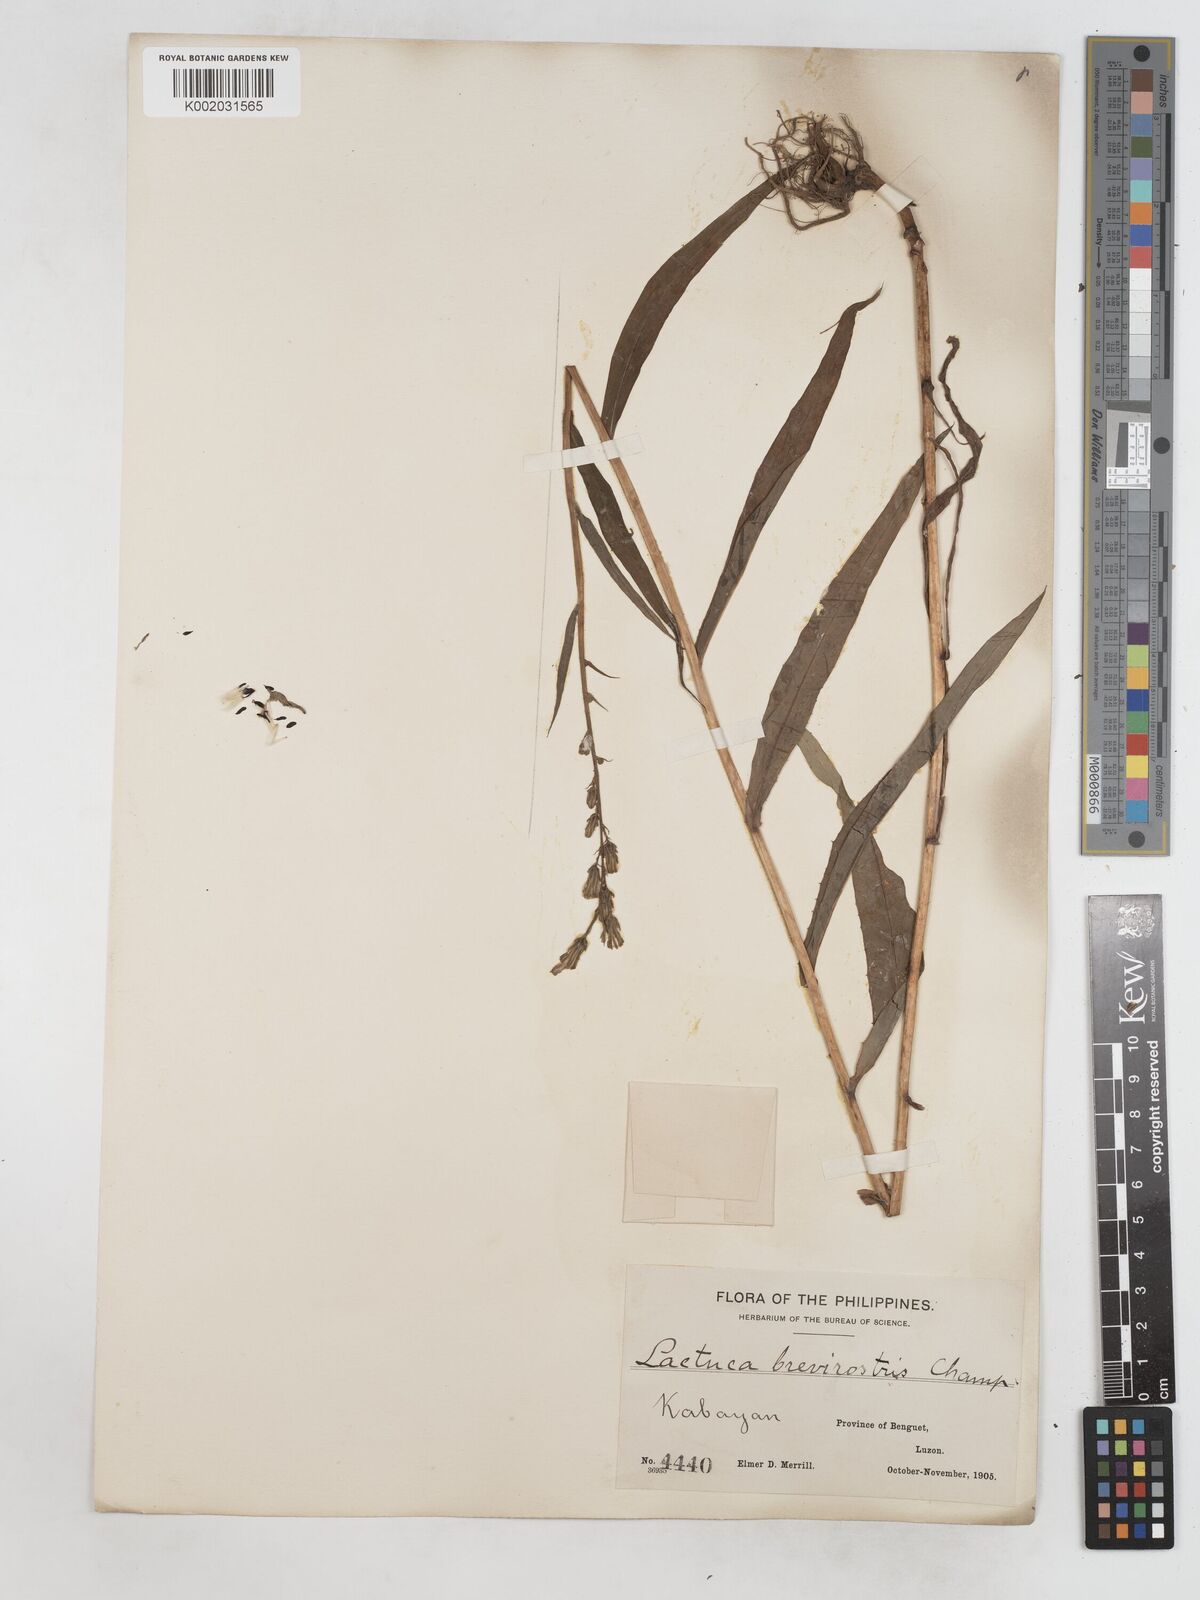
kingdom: Plantae
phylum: Tracheophyta
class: Magnoliopsida
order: Asterales
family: Asteraceae
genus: Lactuca
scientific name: Lactuca indica
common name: Wild lettuce
